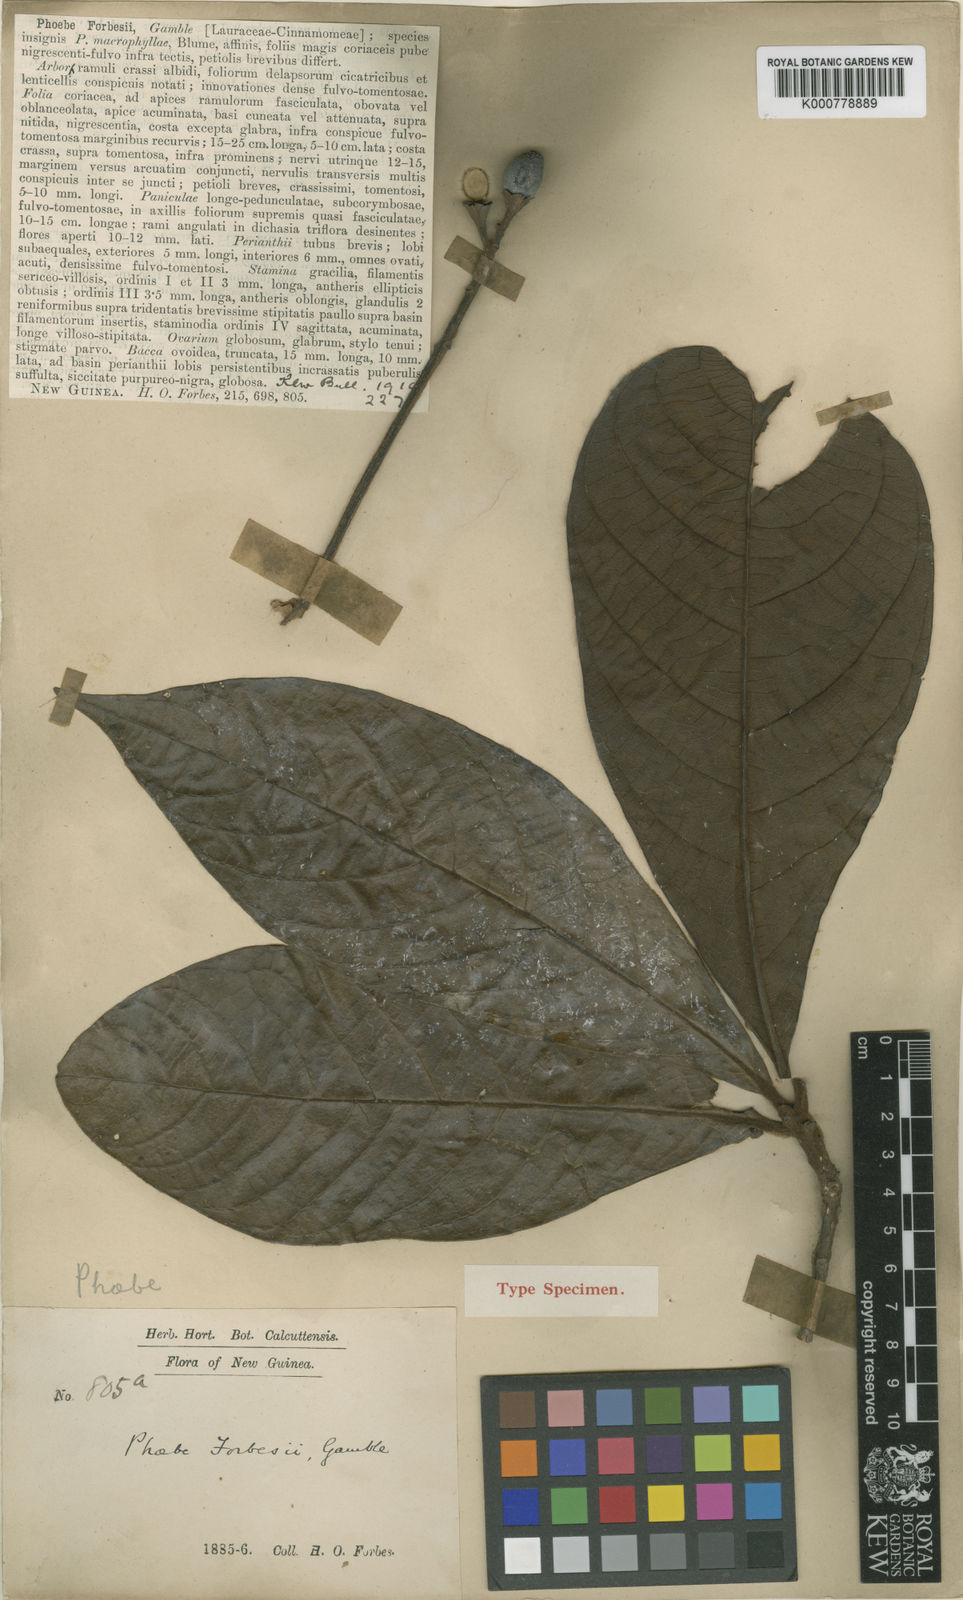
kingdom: Plantae
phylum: Tracheophyta
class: Magnoliopsida
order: Laurales
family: Lauraceae
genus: Phoebe
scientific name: Phoebe forbesii
